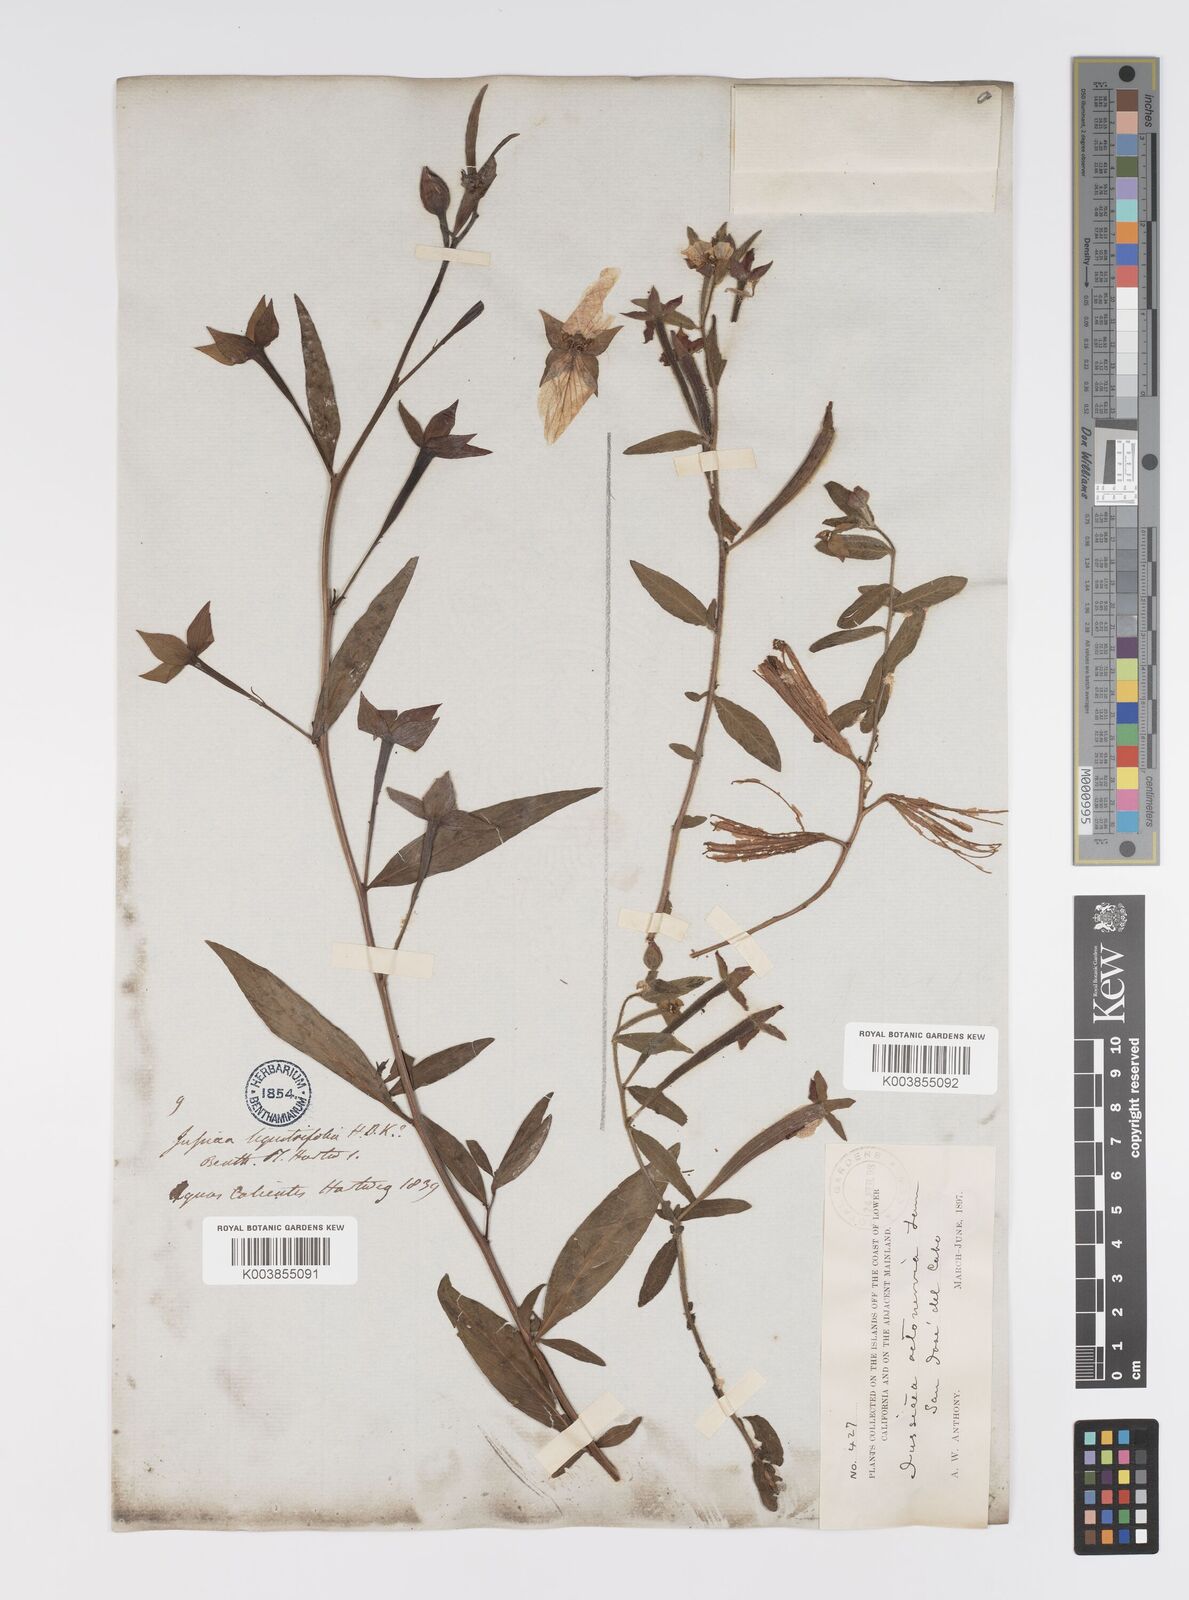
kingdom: Plantae
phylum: Tracheophyta
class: Magnoliopsida
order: Myrtales
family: Onagraceae
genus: Ludwigia
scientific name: Ludwigia octovalvis
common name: Water-primrose
